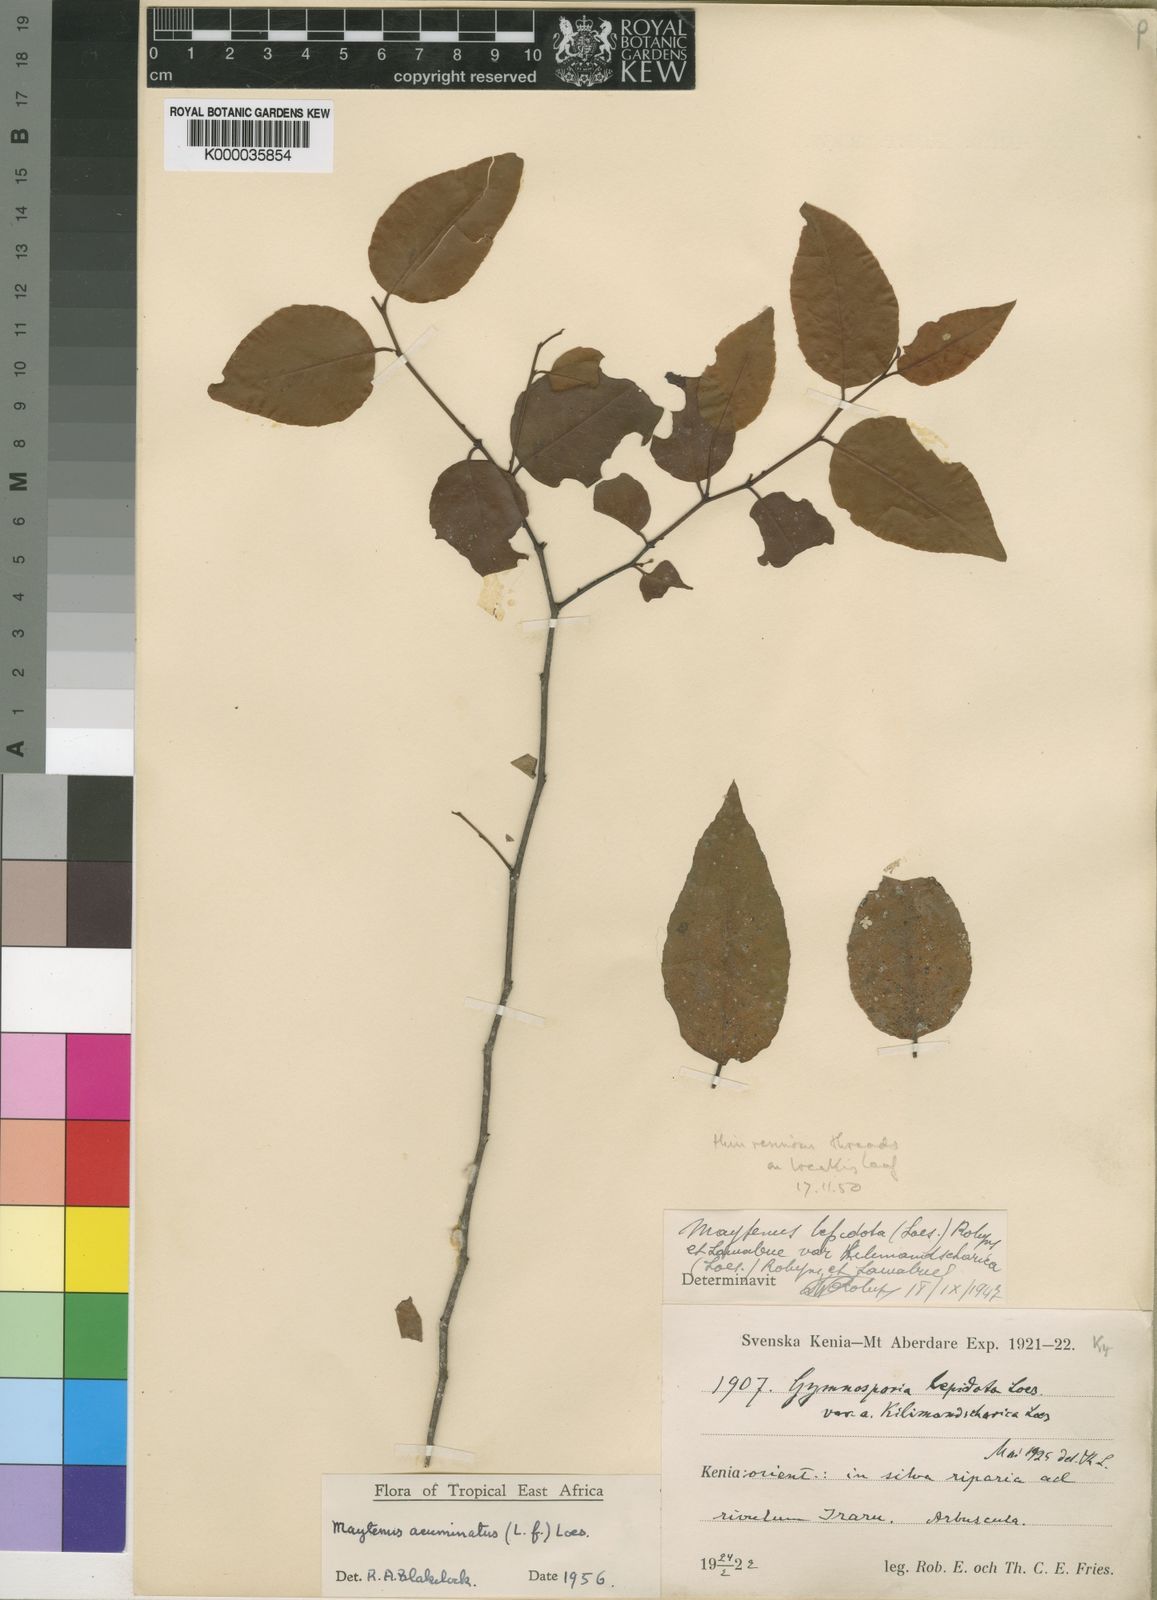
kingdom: Plantae
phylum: Tracheophyta
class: Magnoliopsida
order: Celastrales
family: Celastraceae
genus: Gymnosporia
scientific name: Gymnosporia acuminata
